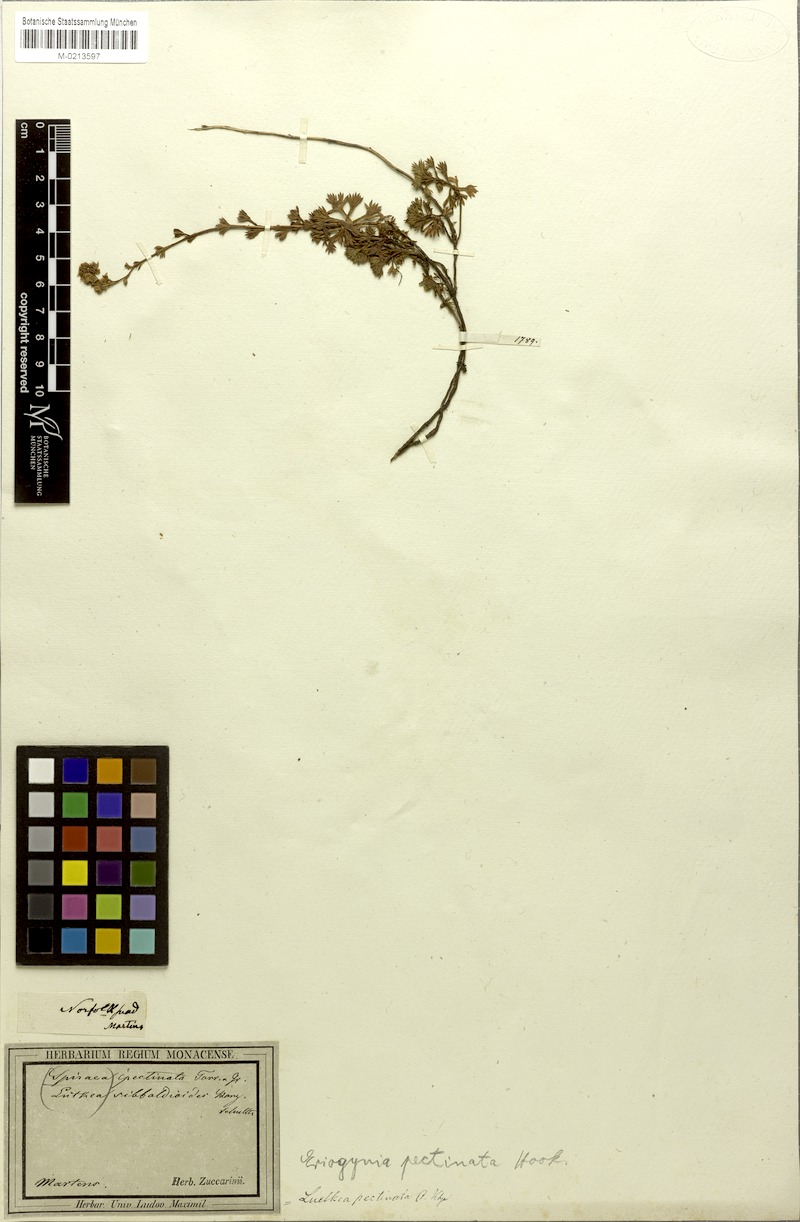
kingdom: Plantae
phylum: Tracheophyta
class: Magnoliopsida
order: Rosales
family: Rosaceae
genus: Luetkea
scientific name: Luetkea pectinata
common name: Partridgefoot
